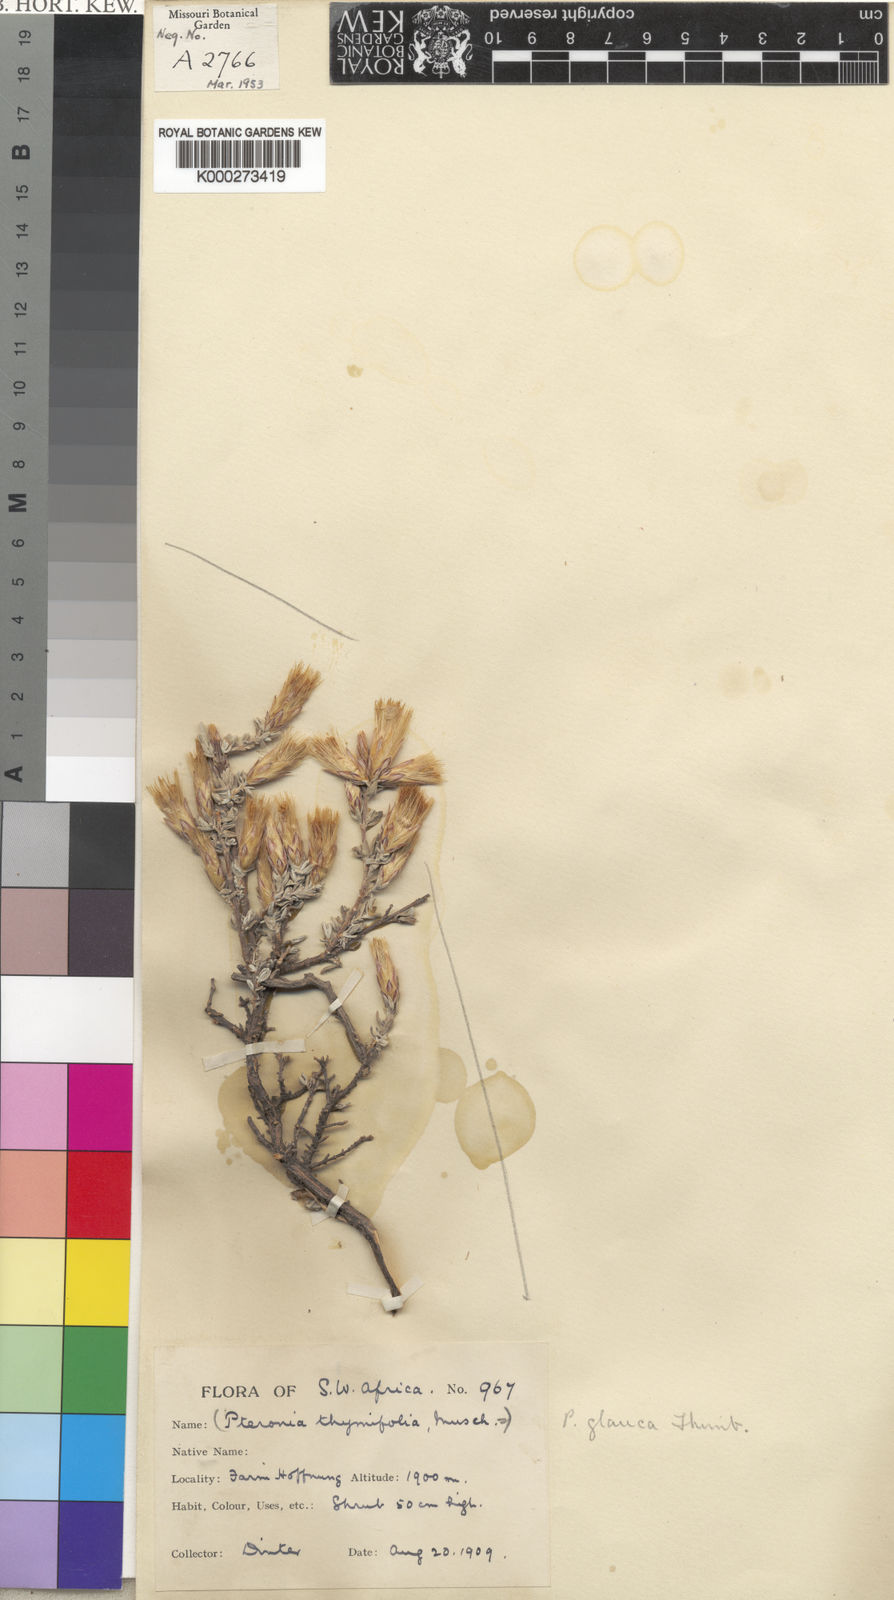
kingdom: Plantae
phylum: Tracheophyta
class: Magnoliopsida
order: Asterales
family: Asteraceae
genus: Pteronia
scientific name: Pteronia glauca
